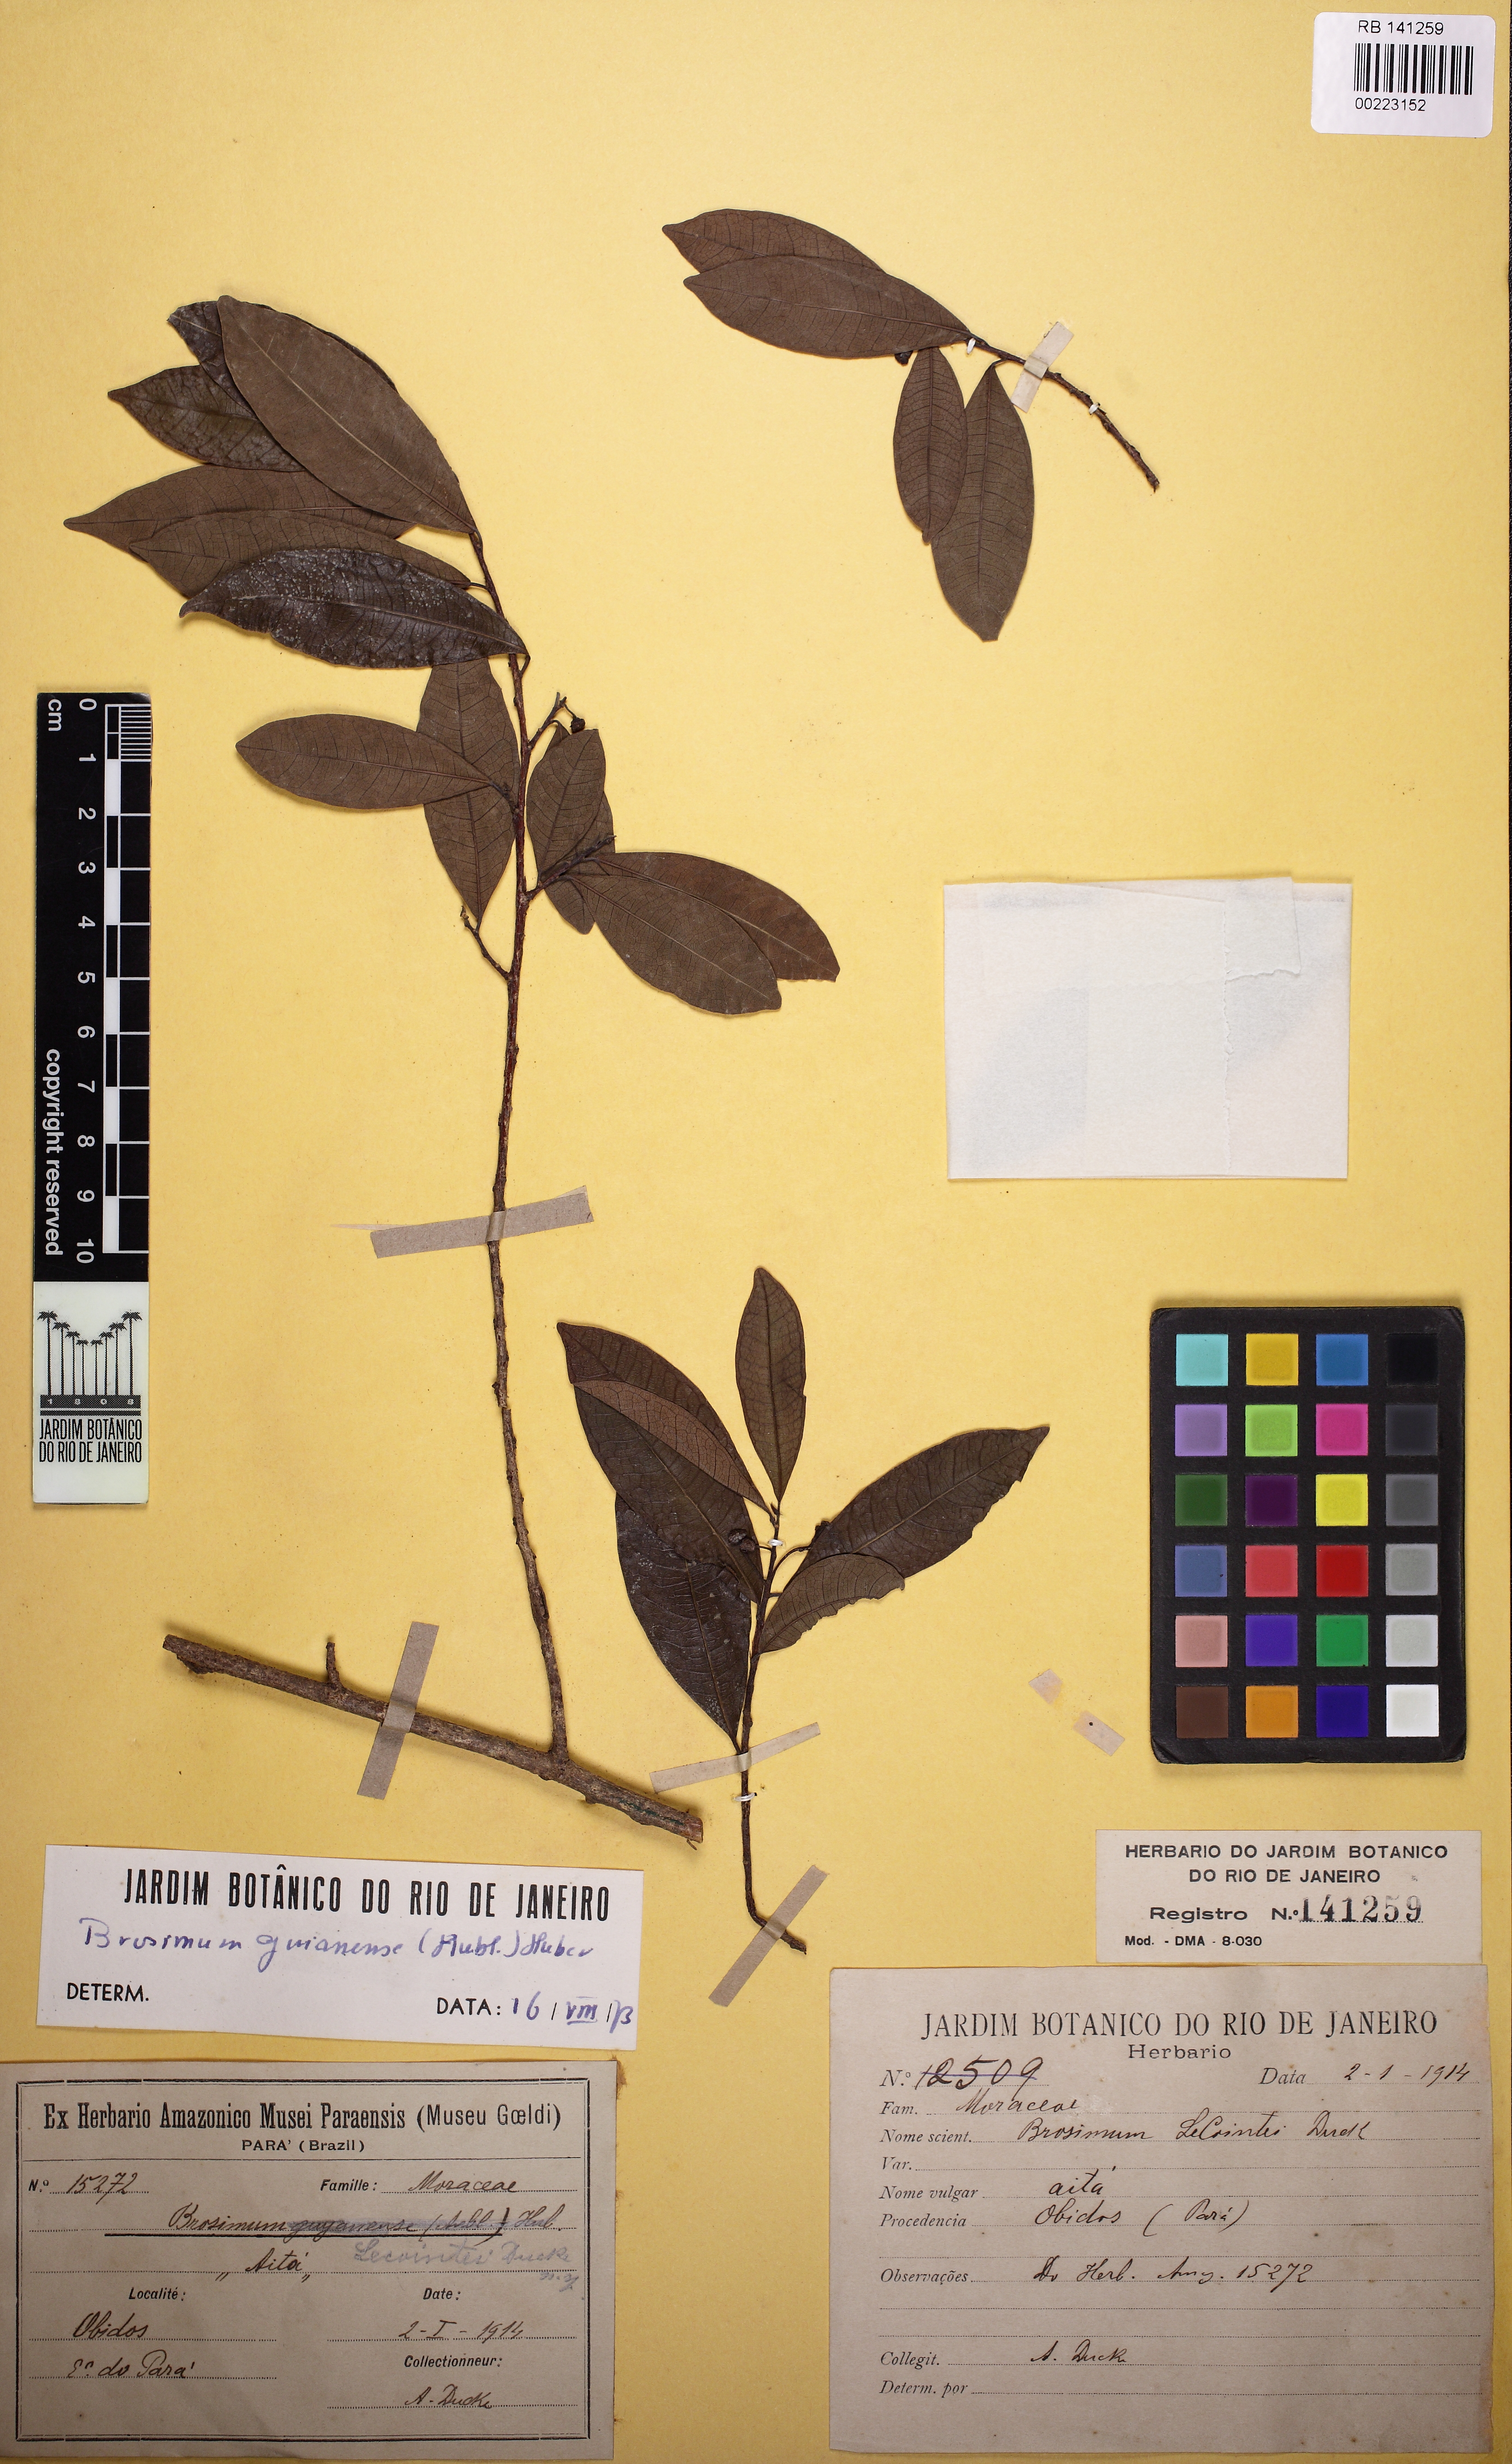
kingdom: Plantae
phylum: Tracheophyta
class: Magnoliopsida
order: Rosales
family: Moraceae
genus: Brosimum
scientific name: Brosimum guianense
